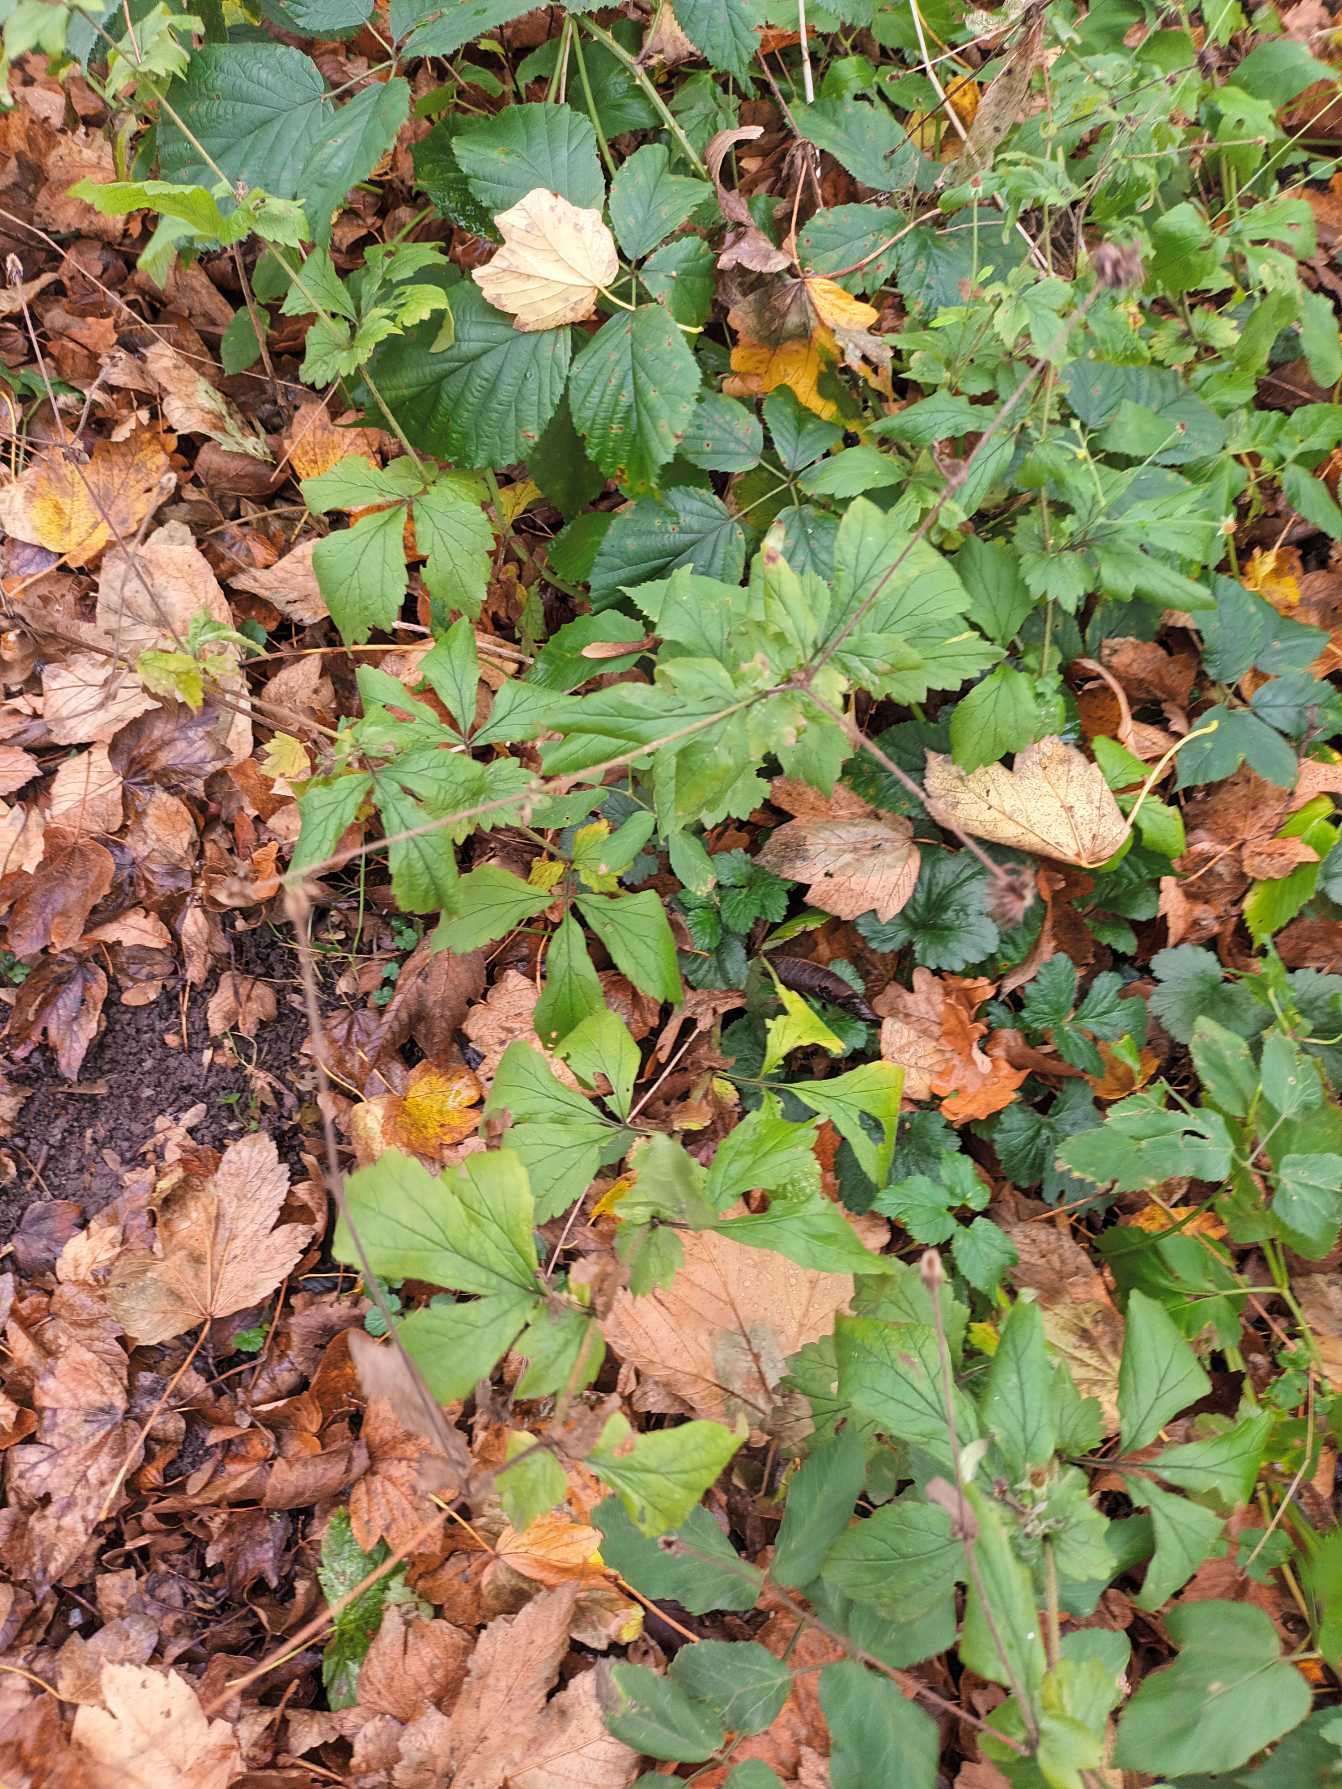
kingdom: Plantae
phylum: Tracheophyta
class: Magnoliopsida
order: Rosales
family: Rosaceae
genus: Geum
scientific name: Geum urbanum
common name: Feber-nellikerod
